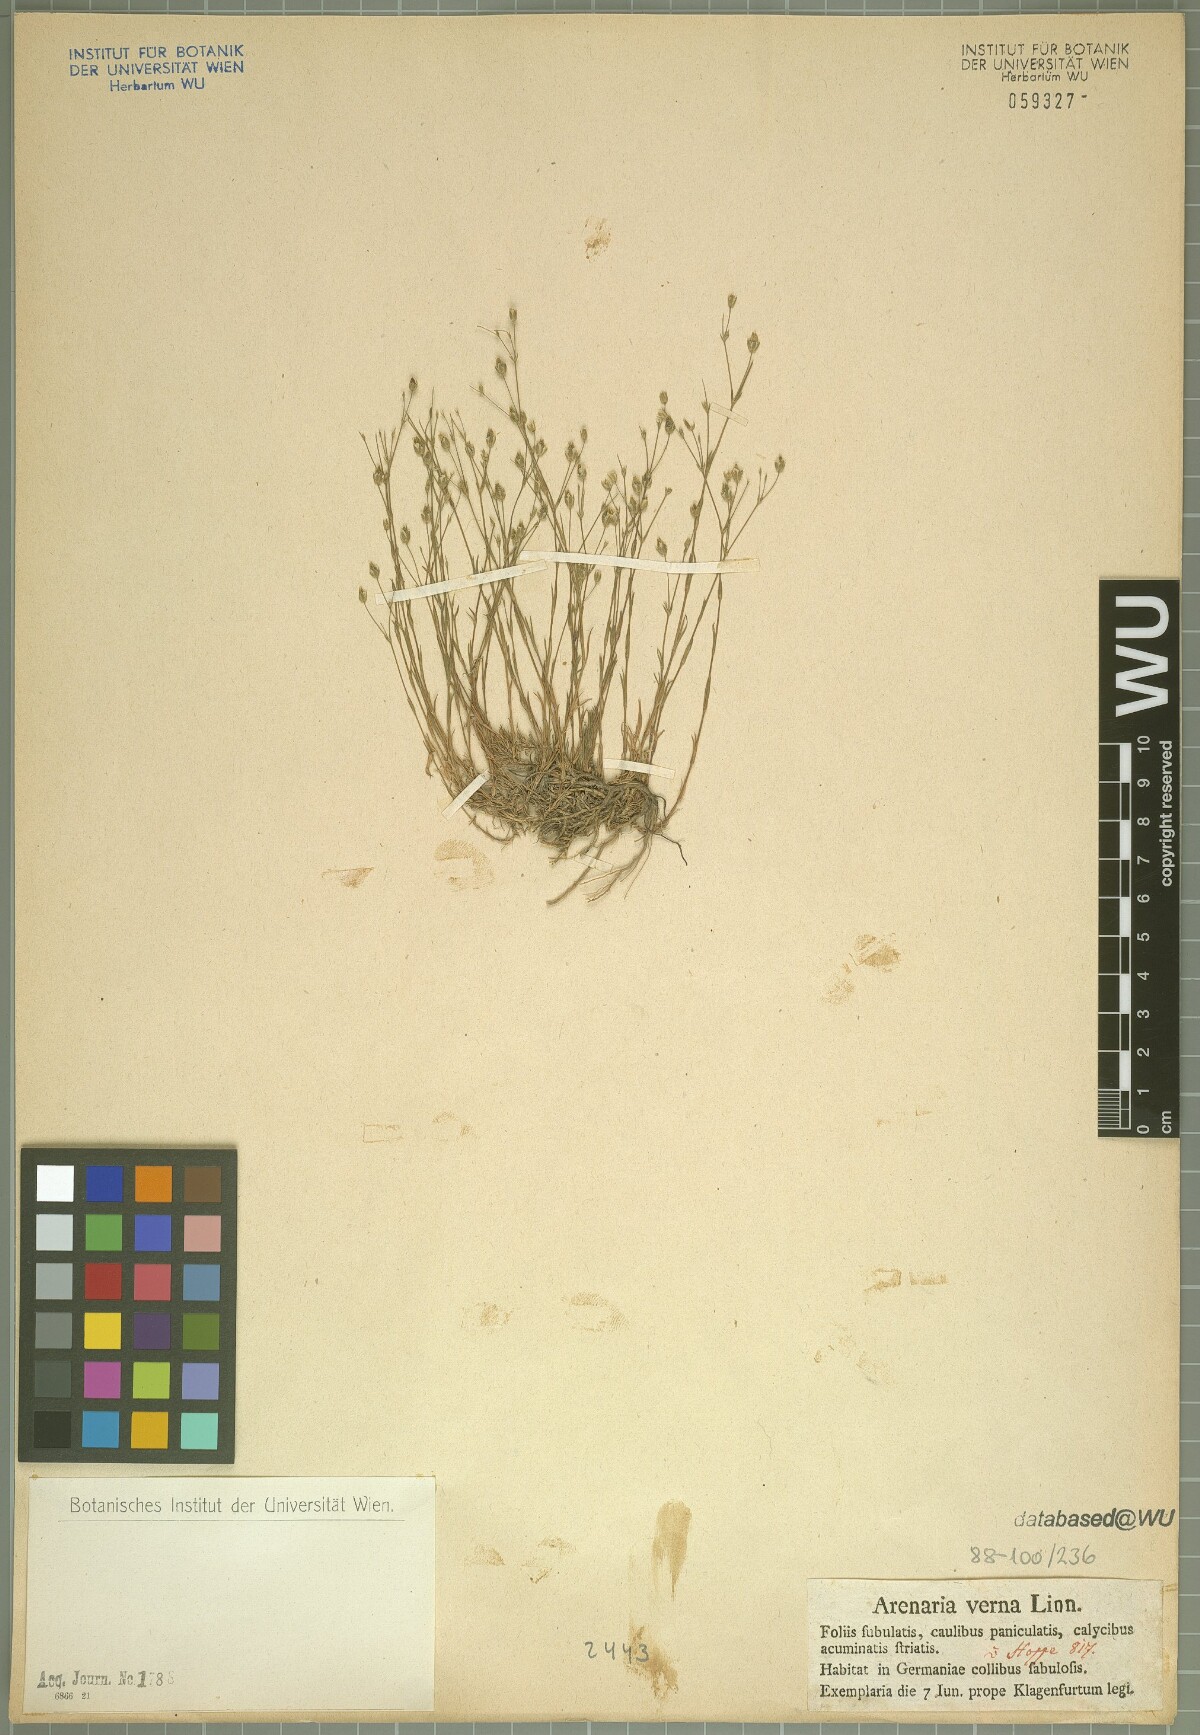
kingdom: Plantae
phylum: Tracheophyta
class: Magnoliopsida
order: Caryophyllales
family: Caryophyllaceae
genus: Sabulina
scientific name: Sabulina verna
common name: Spring sandwort
